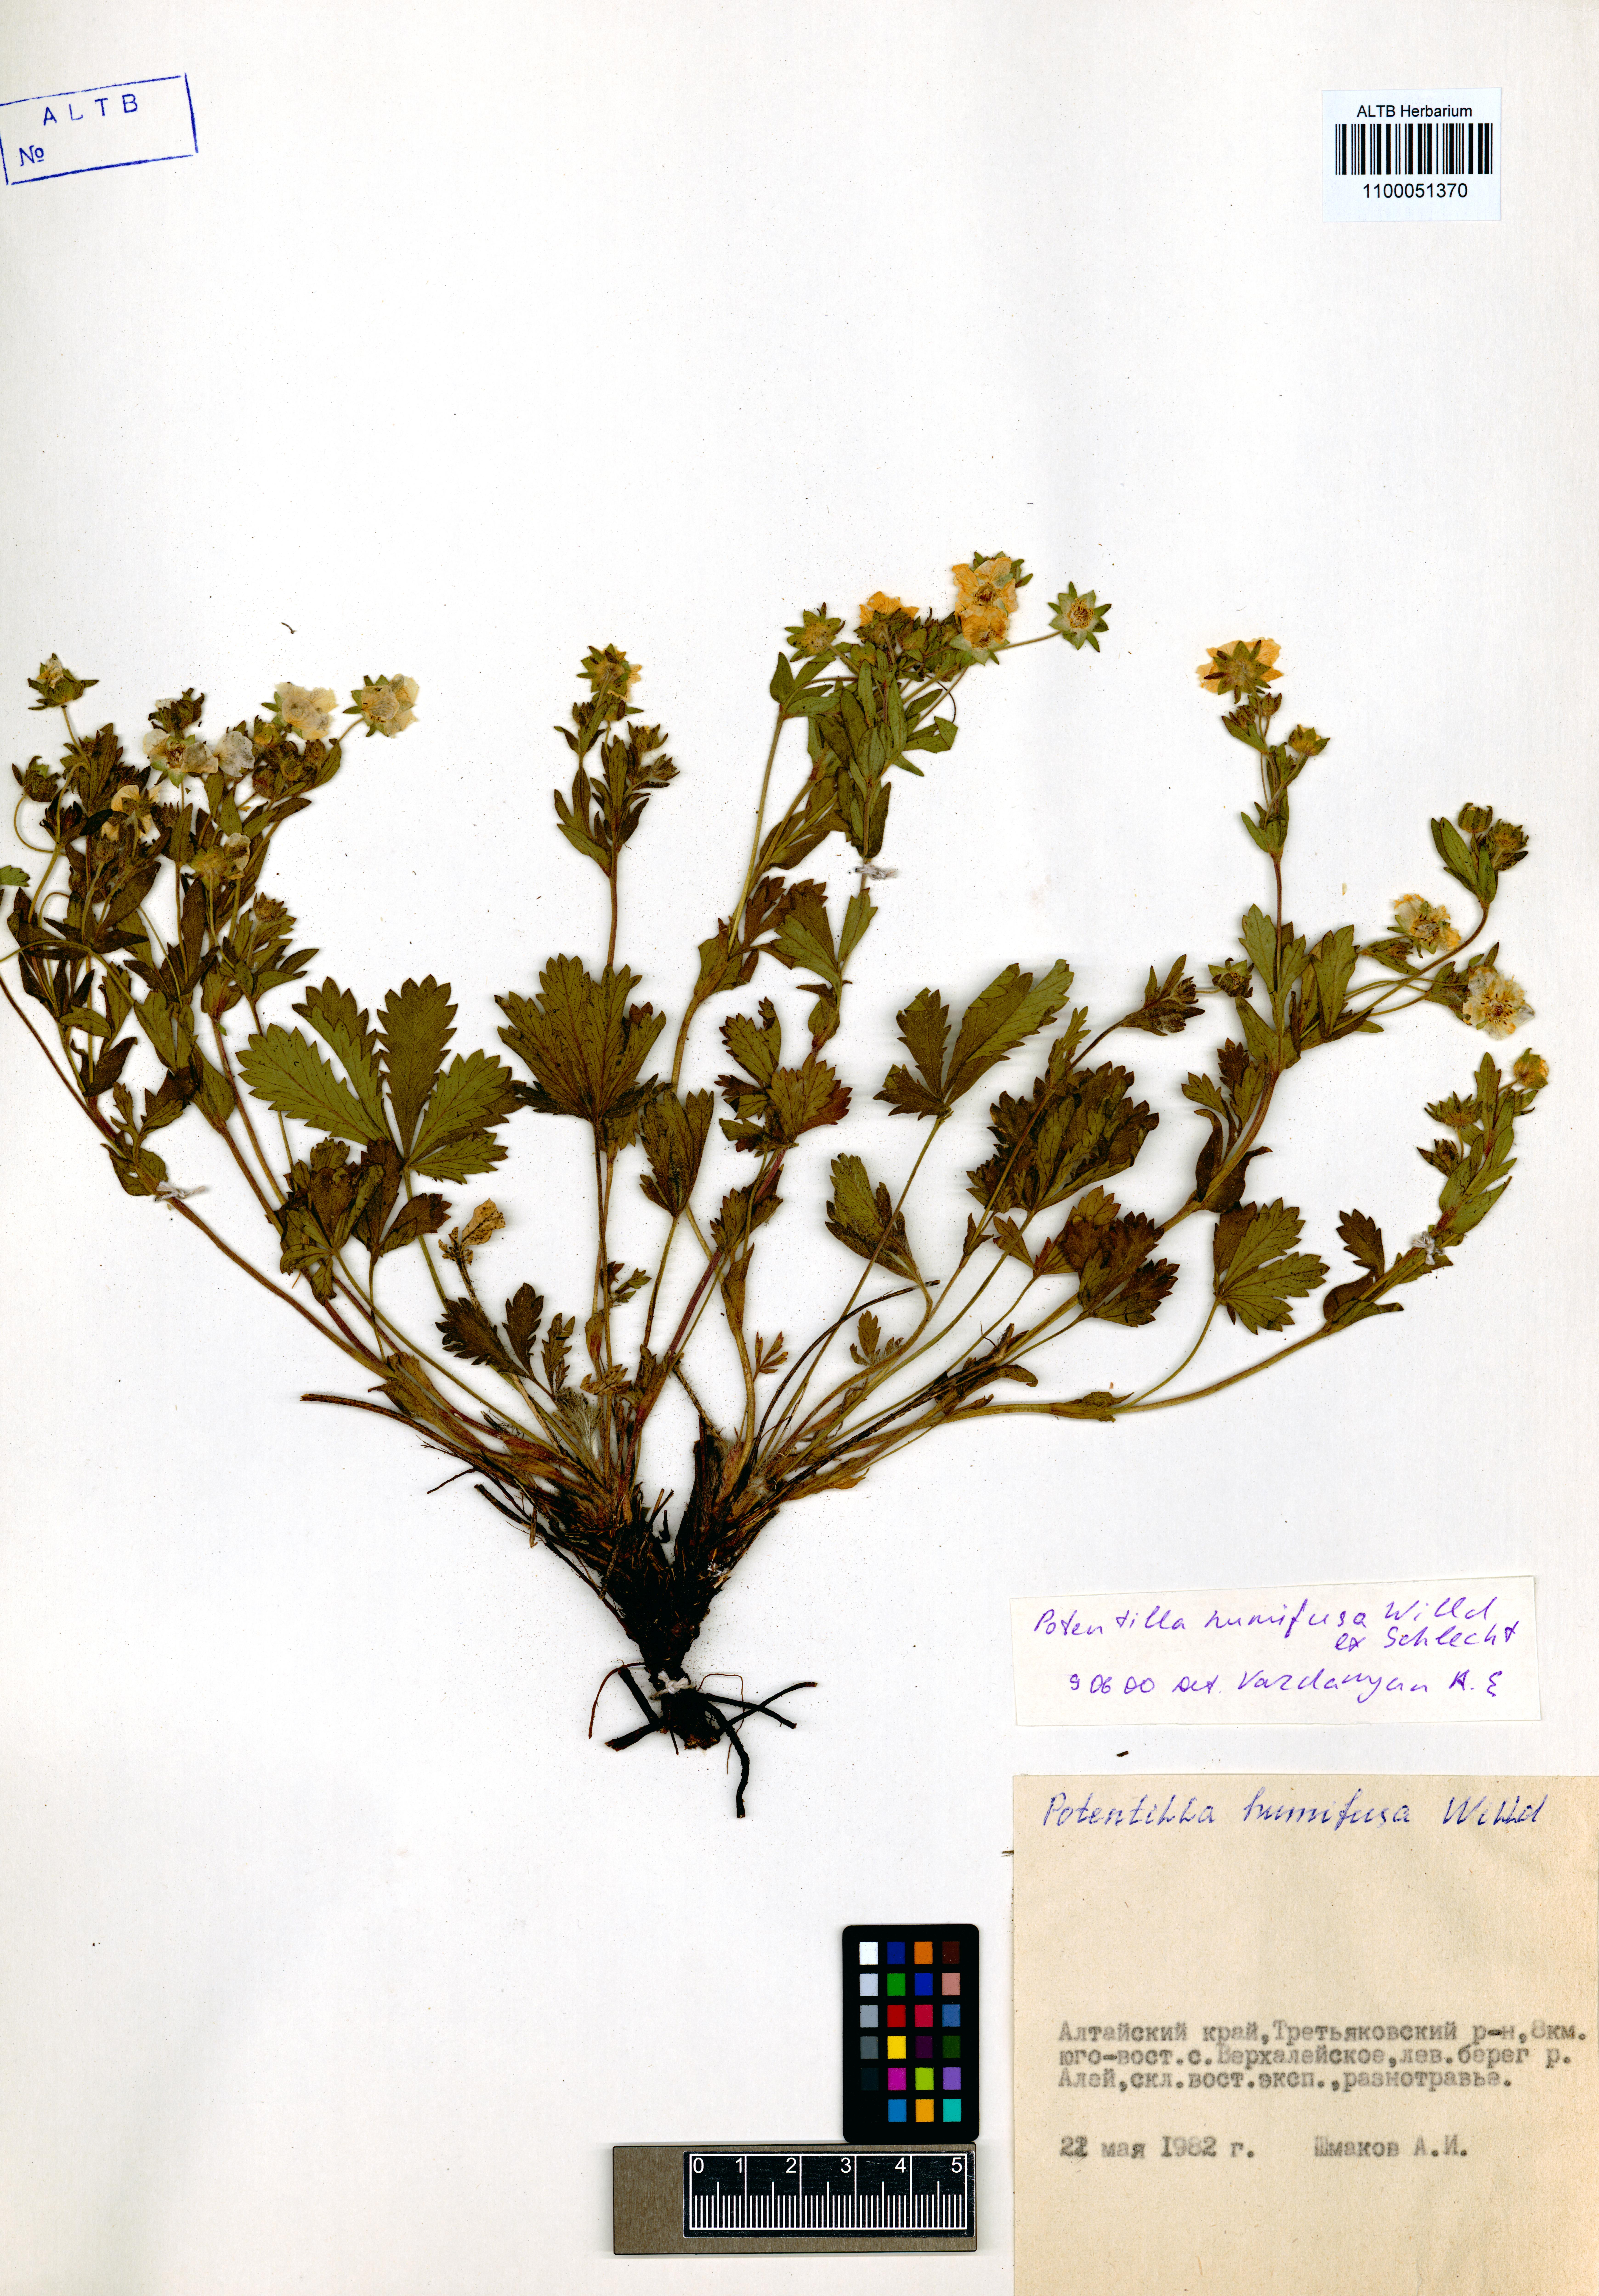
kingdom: Plantae
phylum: Tracheophyta
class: Magnoliopsida
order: Rosales
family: Rosaceae
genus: Potentilla
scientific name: Potentilla humifusa
